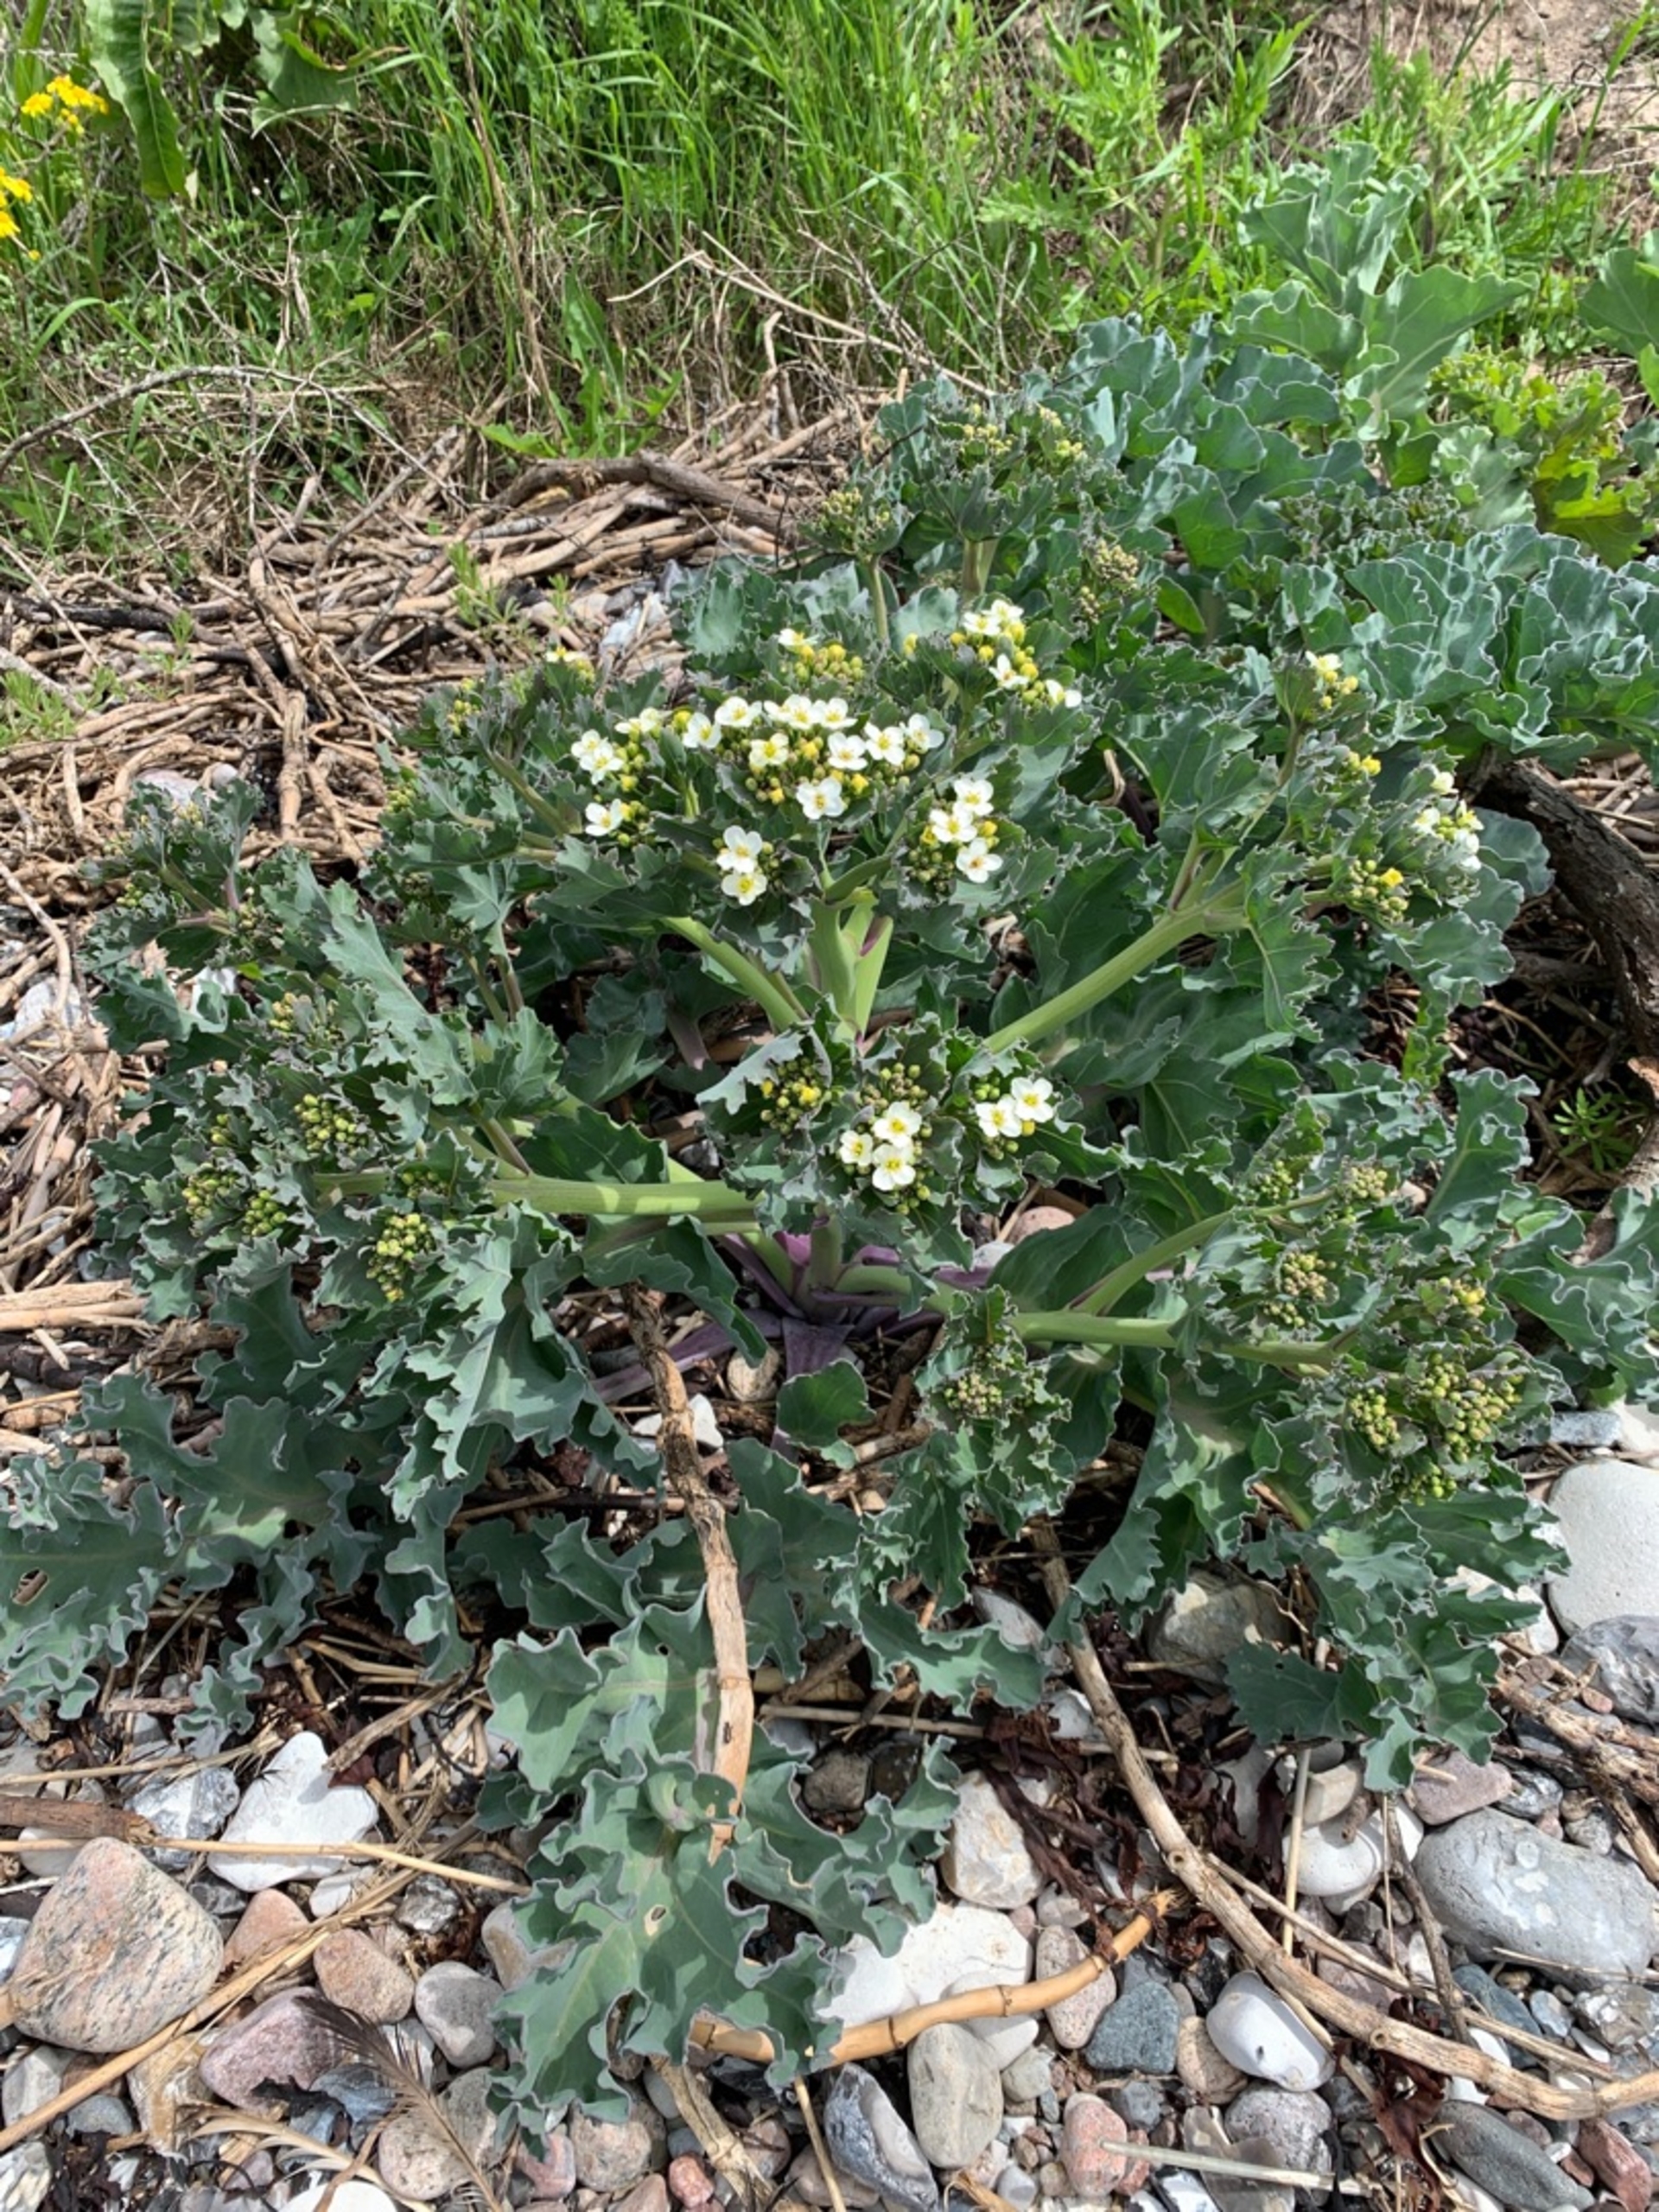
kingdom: Plantae
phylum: Tracheophyta
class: Magnoliopsida
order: Brassicales
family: Brassicaceae
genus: Crambe
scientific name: Crambe maritima
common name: Strandkål
